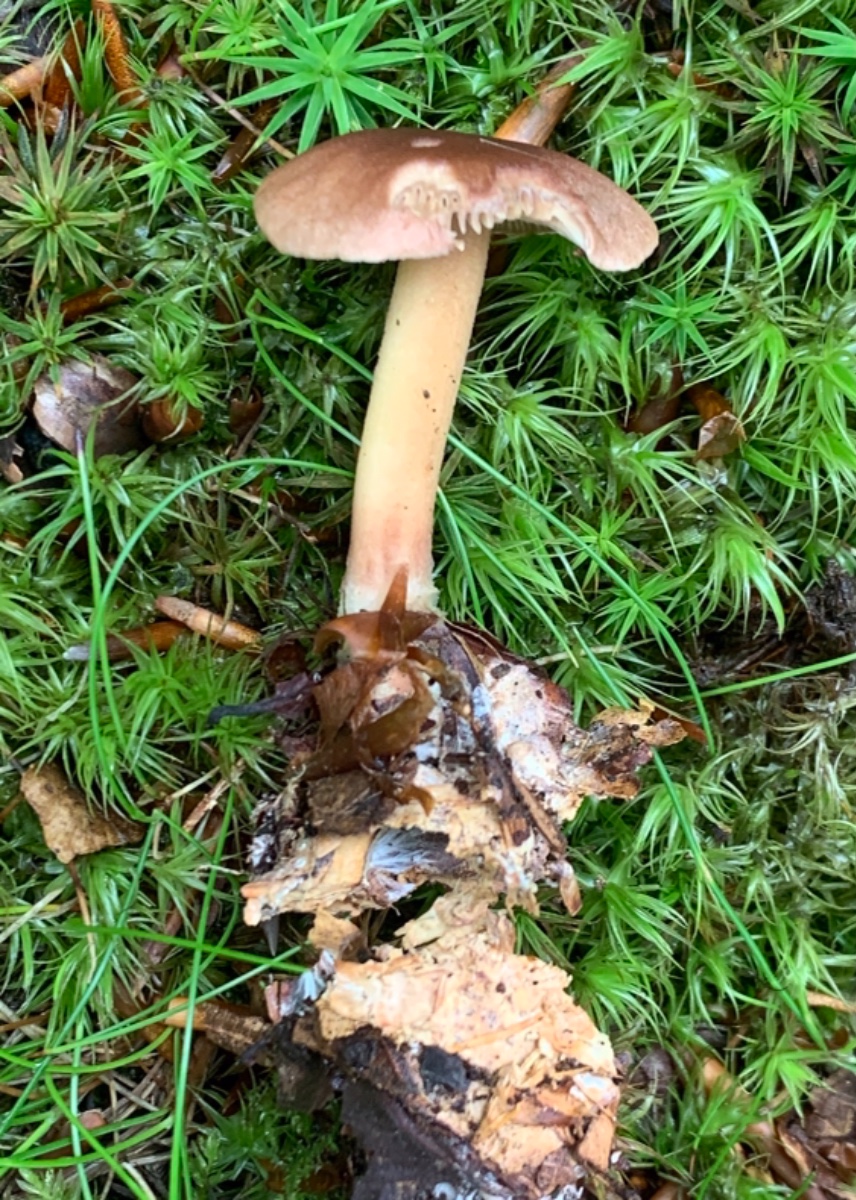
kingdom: Fungi
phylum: Basidiomycota
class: Agaricomycetes
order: Agaricales
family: Omphalotaceae
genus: Gymnopus
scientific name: Gymnopus ocior
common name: mørk fladhat
